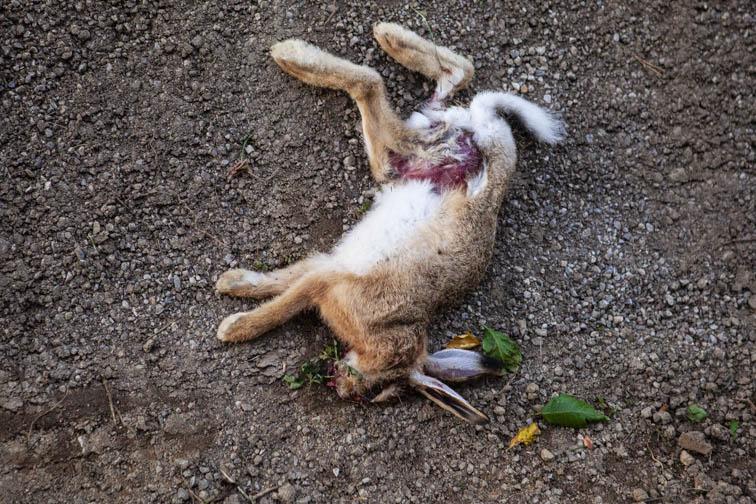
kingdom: Animalia
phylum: Chordata
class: Mammalia
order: Lagomorpha
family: Leporidae
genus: Lepus
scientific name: Lepus europaeus
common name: European hare
